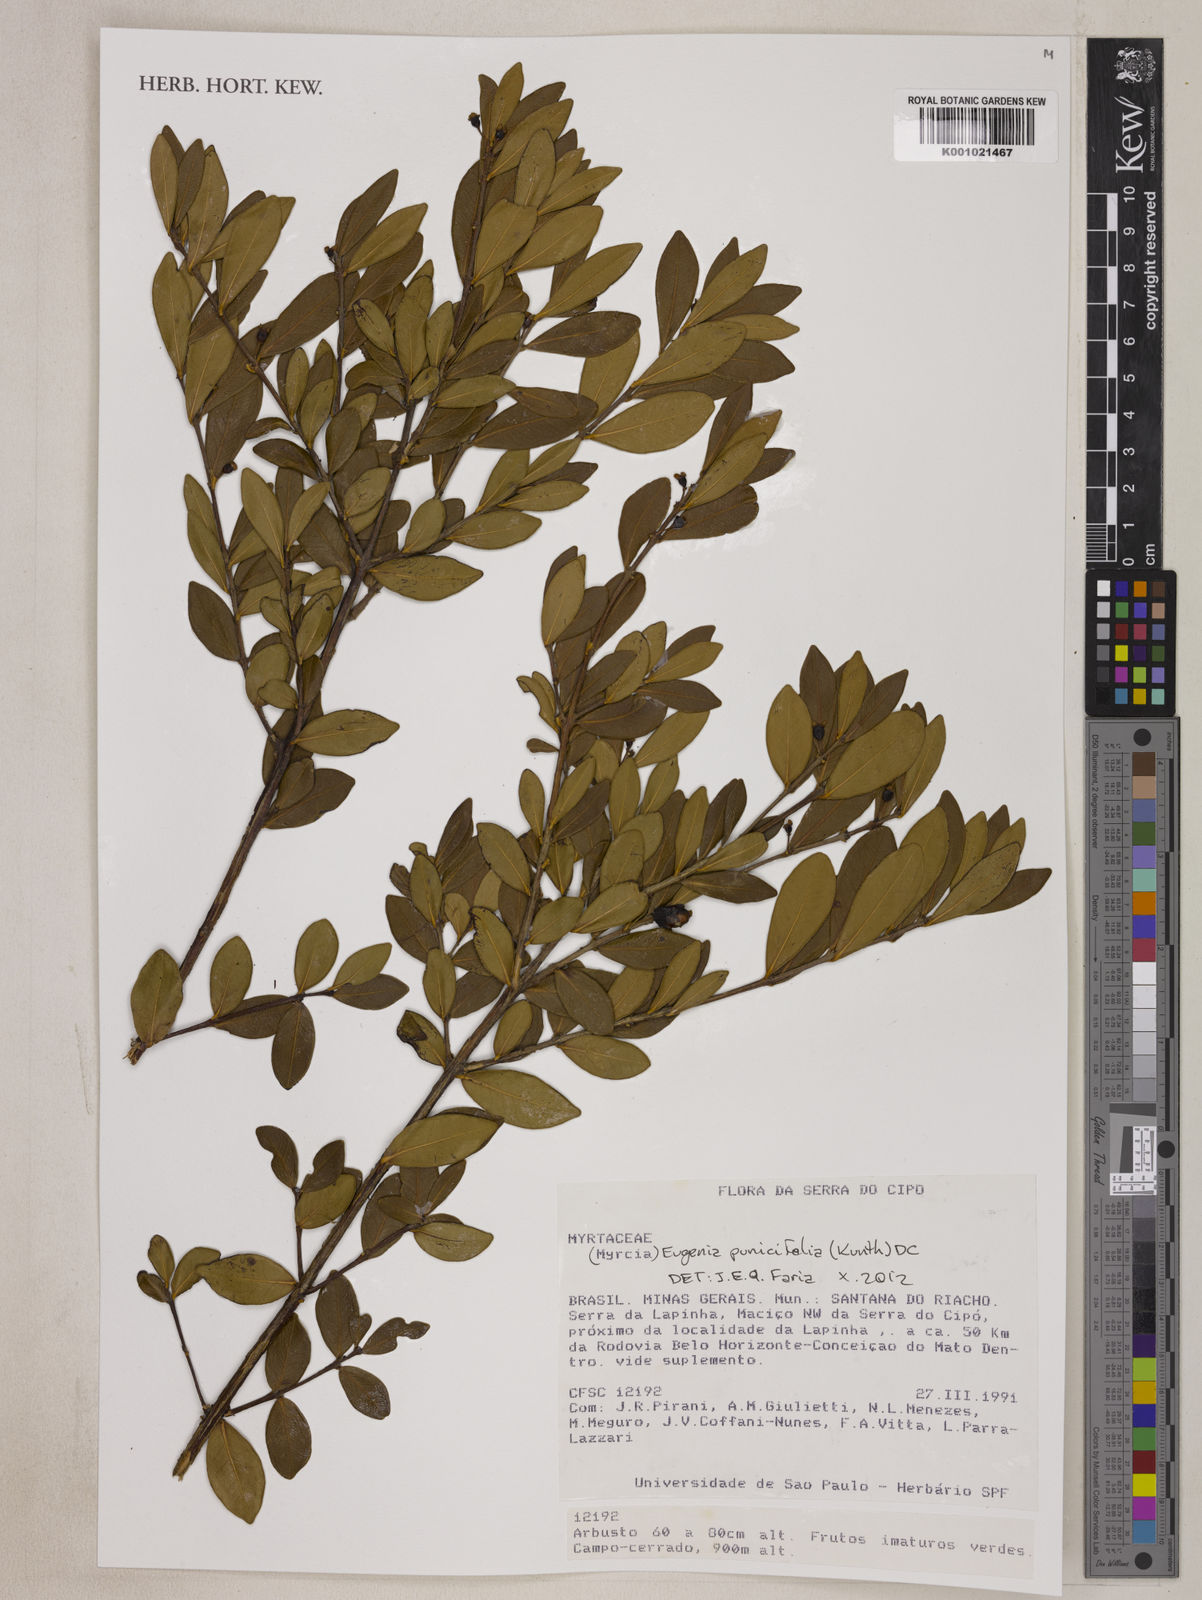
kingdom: Plantae
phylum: Tracheophyta
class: Magnoliopsida
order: Myrtales
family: Myrtaceae
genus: Eugenia
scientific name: Eugenia punicifolia
